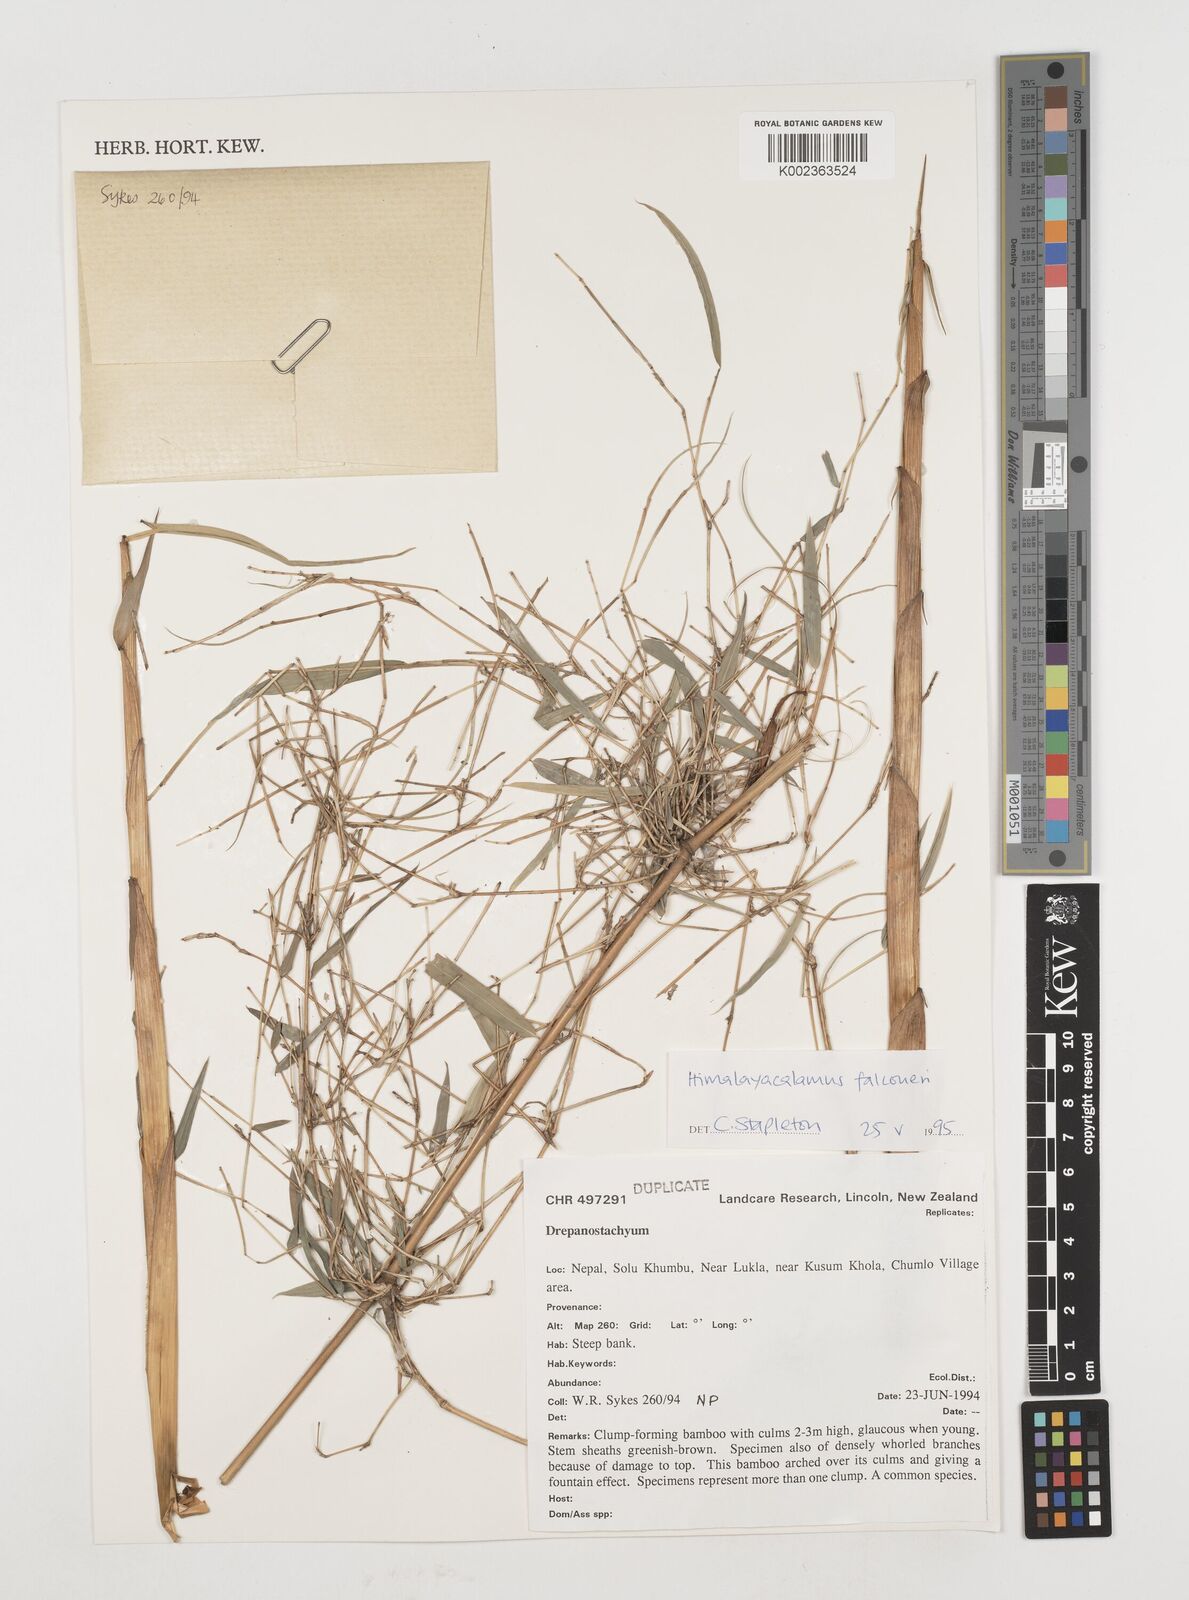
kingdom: Plantae
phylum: Tracheophyta
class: Liliopsida
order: Poales
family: Poaceae
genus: Himalayacalamus
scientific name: Himalayacalamus
